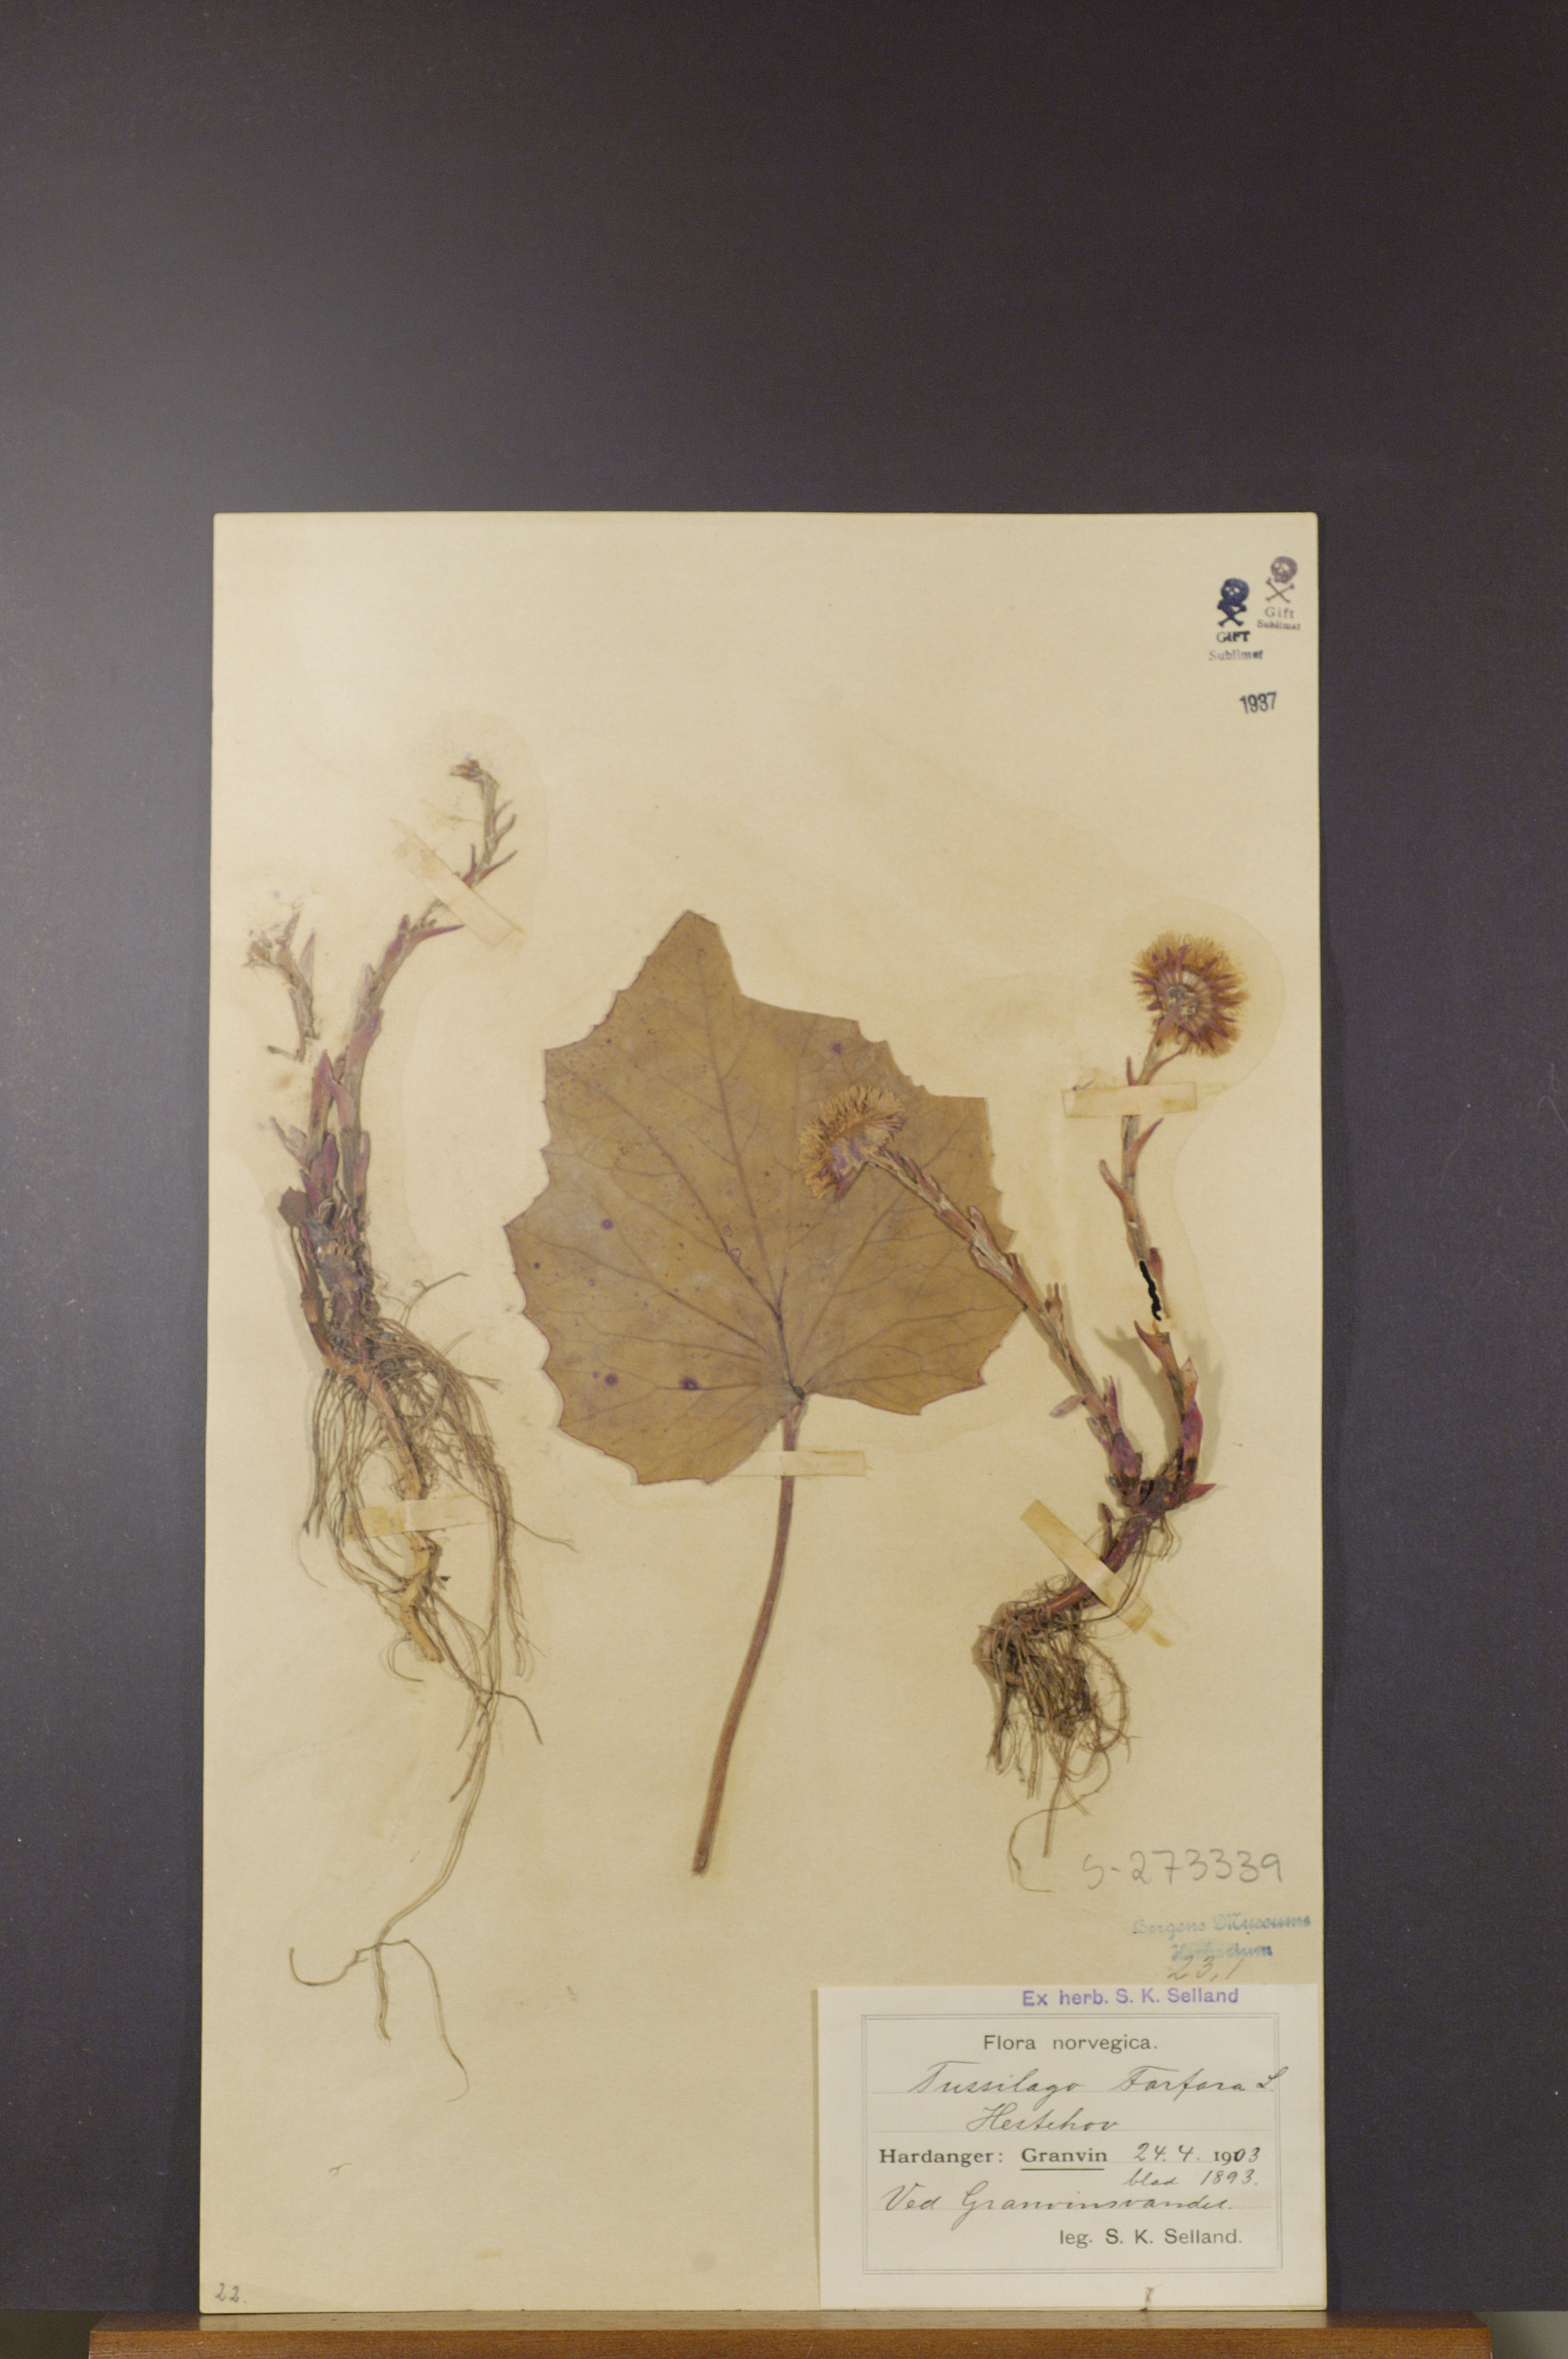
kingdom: Plantae
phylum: Tracheophyta
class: Magnoliopsida
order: Asterales
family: Asteraceae
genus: Tussilago
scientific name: Tussilago farfara
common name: Coltsfoot
